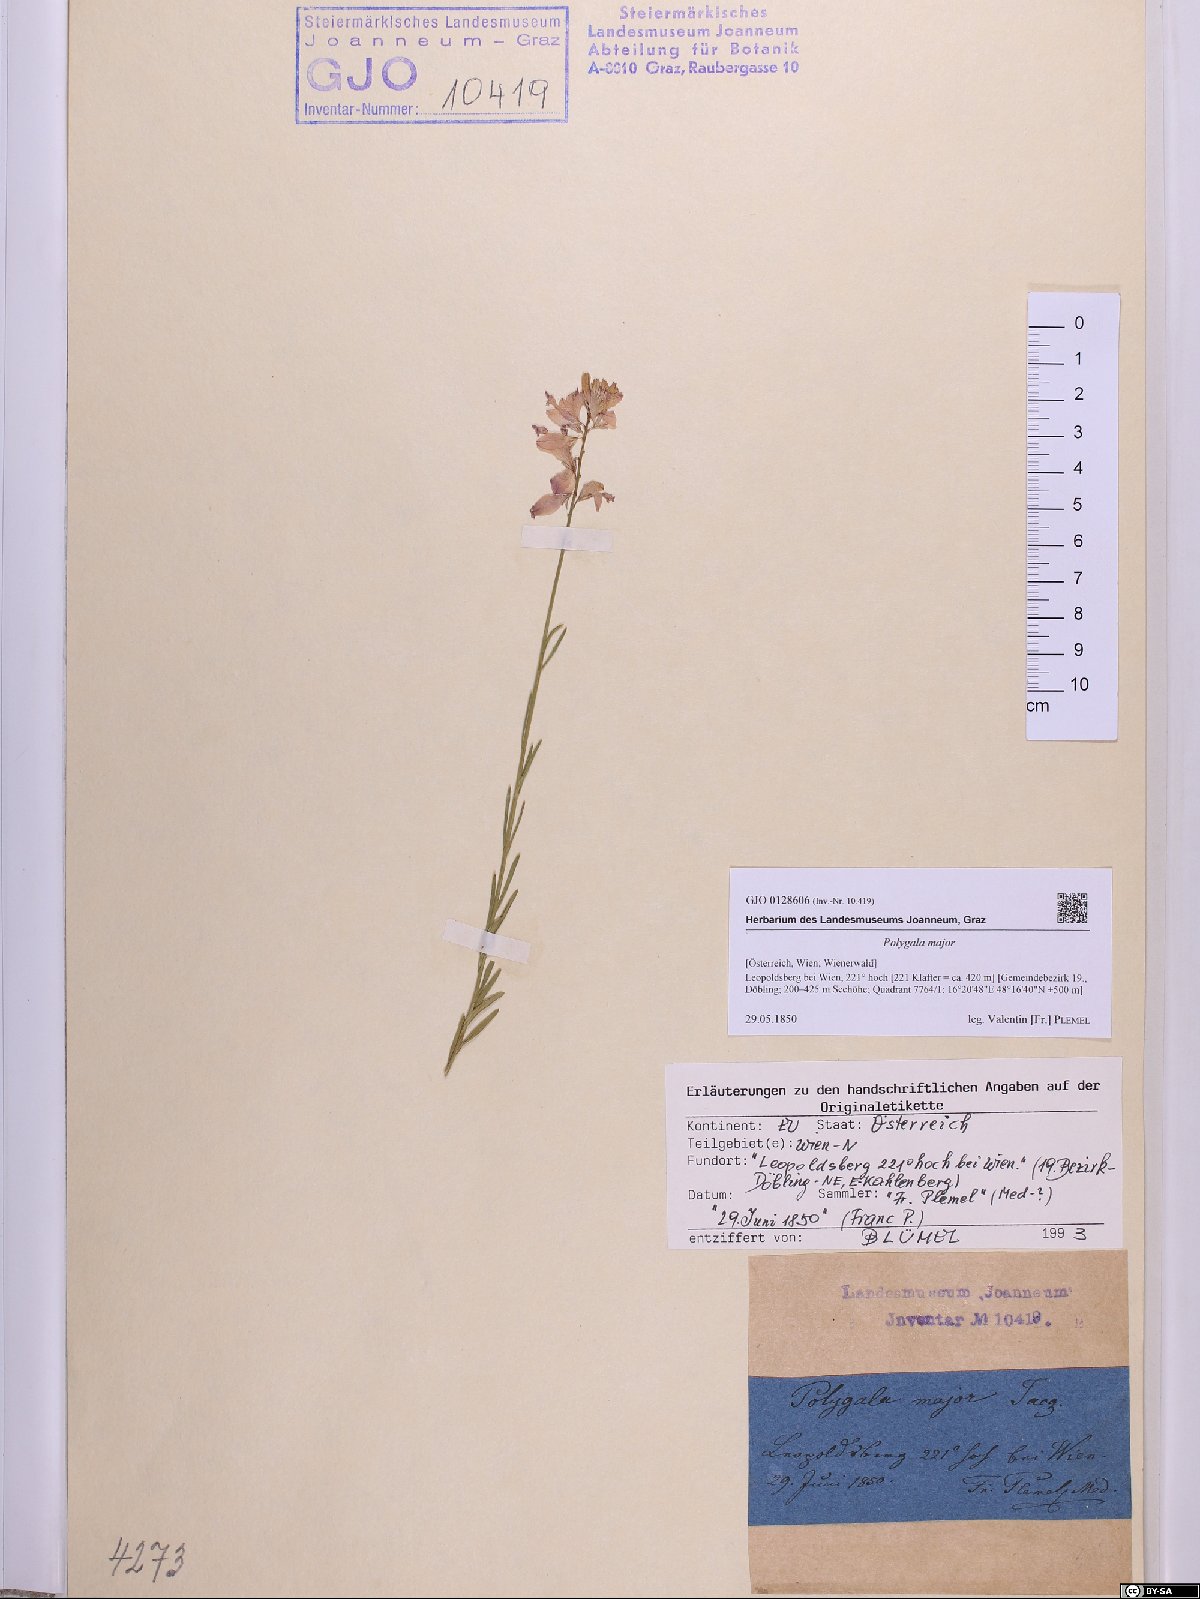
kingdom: Plantae
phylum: Tracheophyta
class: Magnoliopsida
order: Fabales
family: Polygalaceae
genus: Polygala
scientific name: Polygala major
